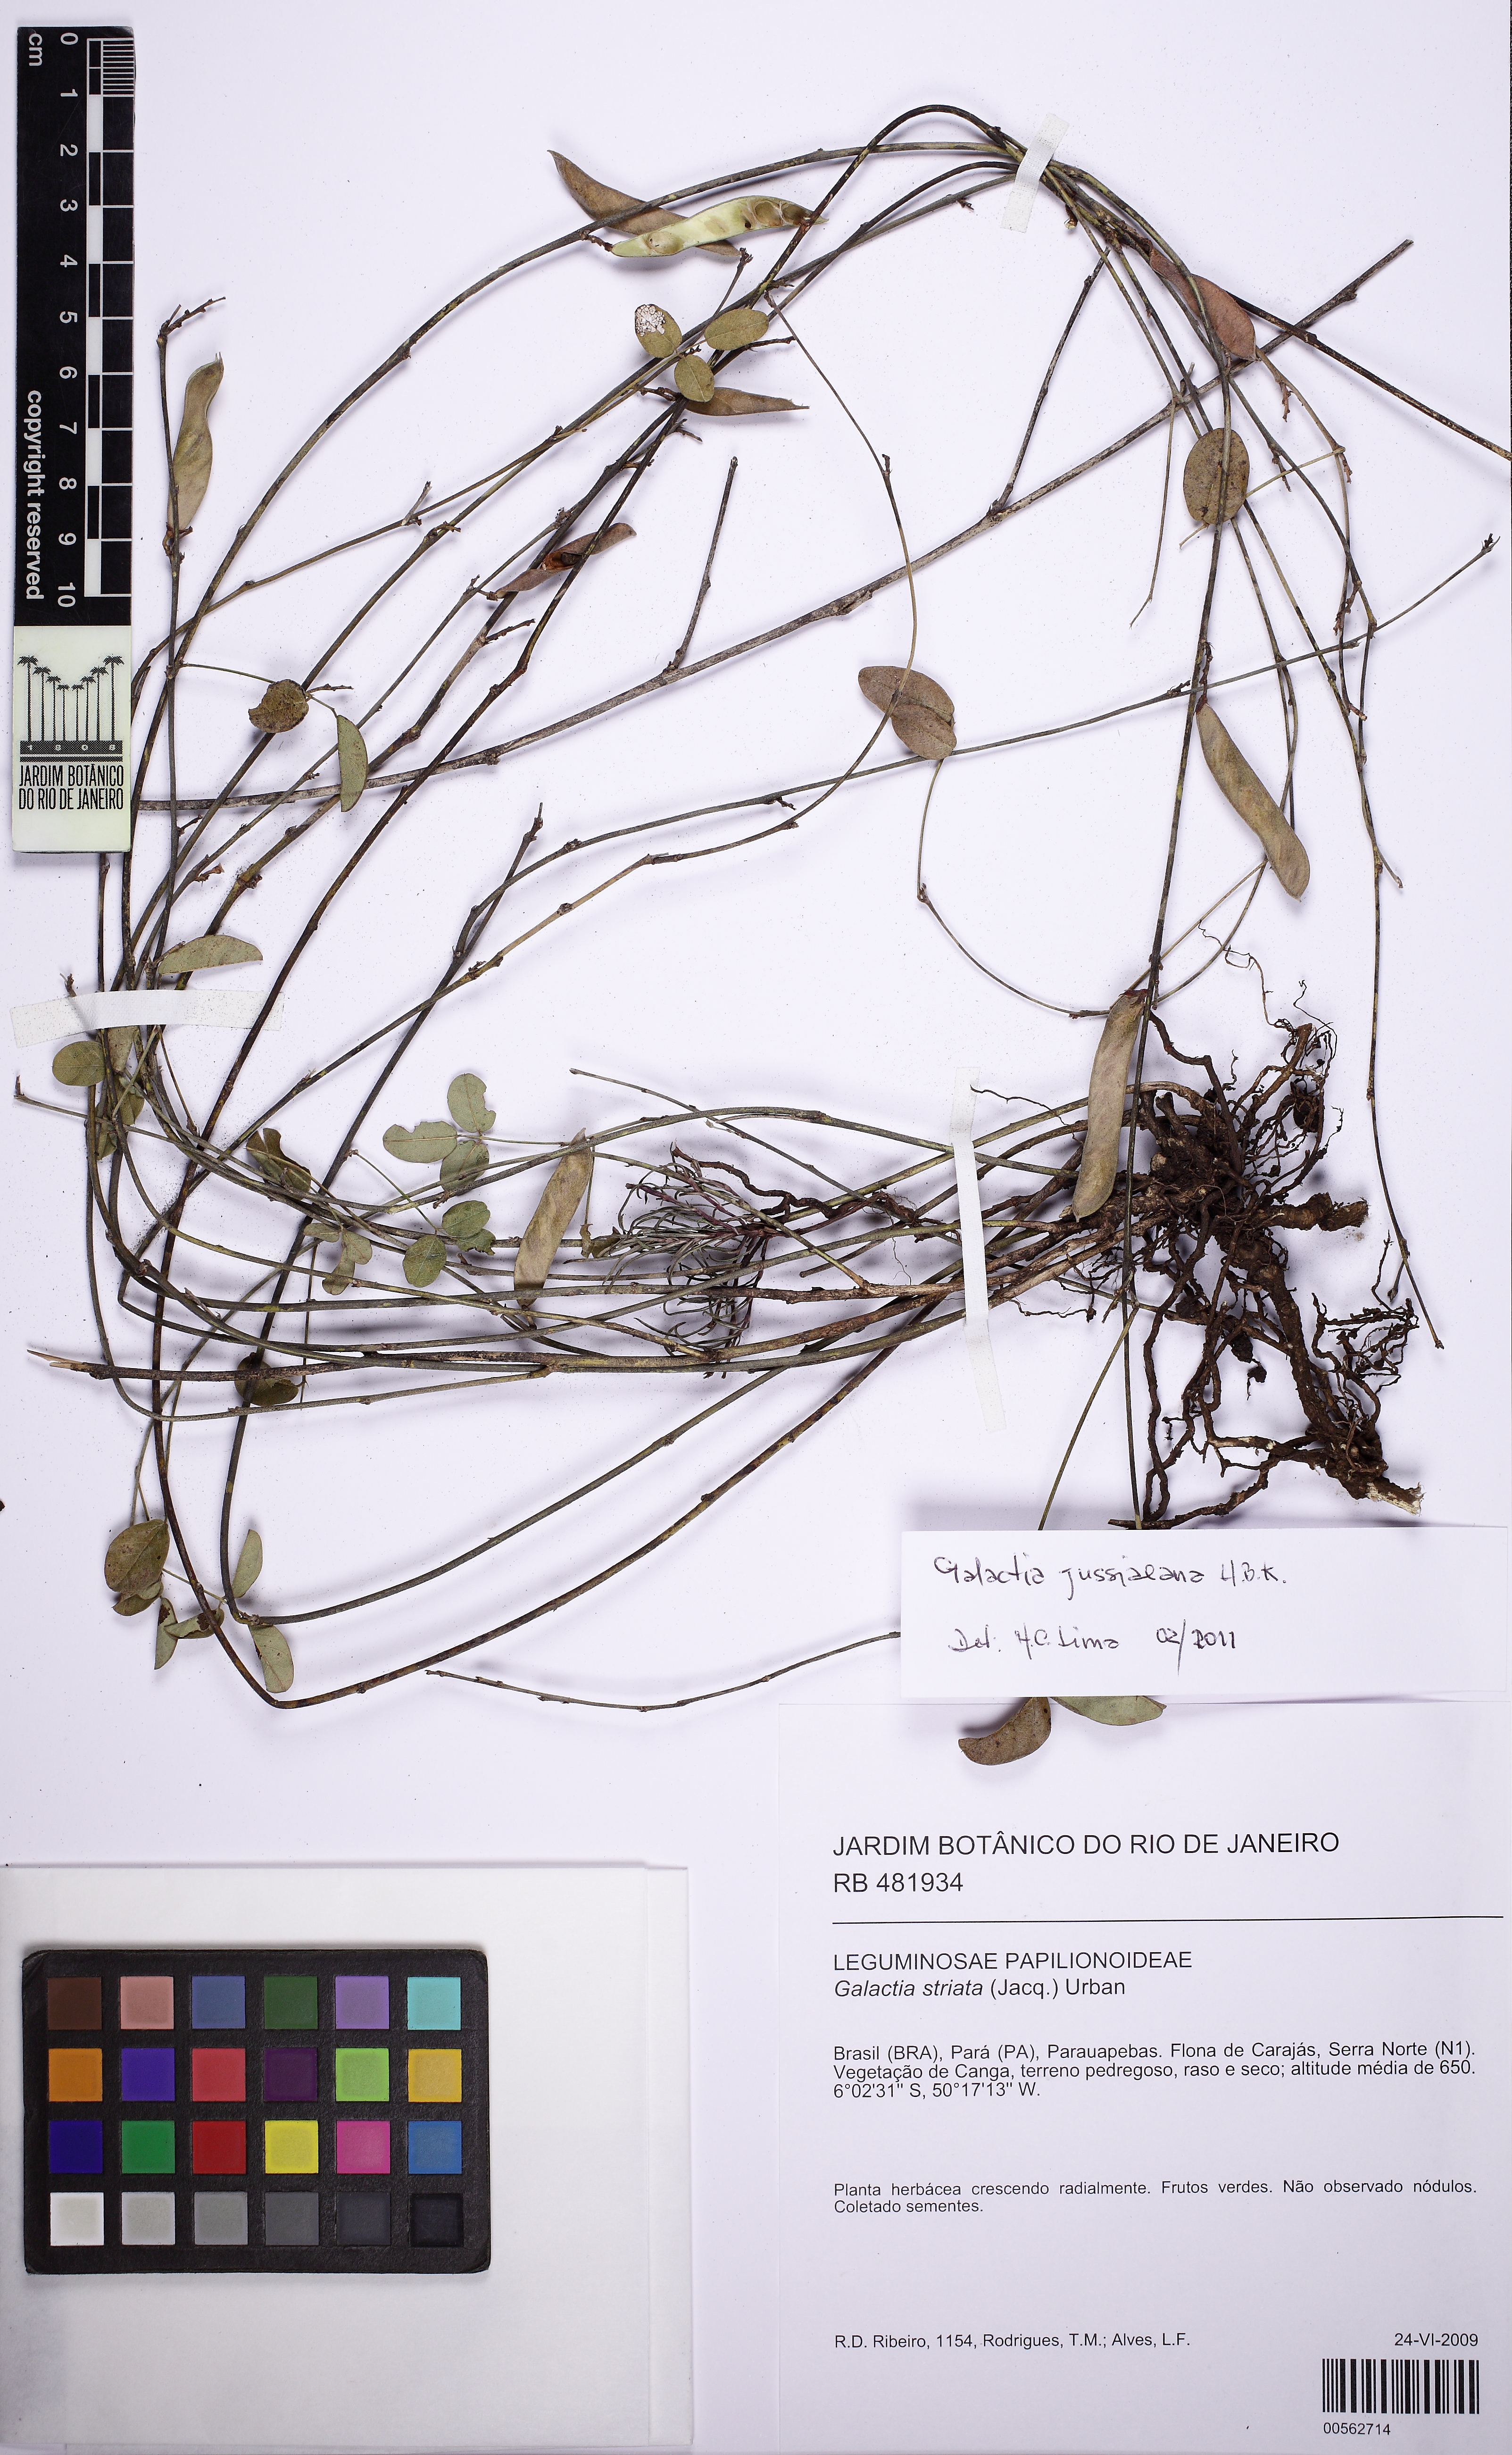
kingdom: Plantae
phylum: Tracheophyta
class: Magnoliopsida
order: Fabales
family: Fabaceae
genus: Galactia
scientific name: Galactia jussiaeana
